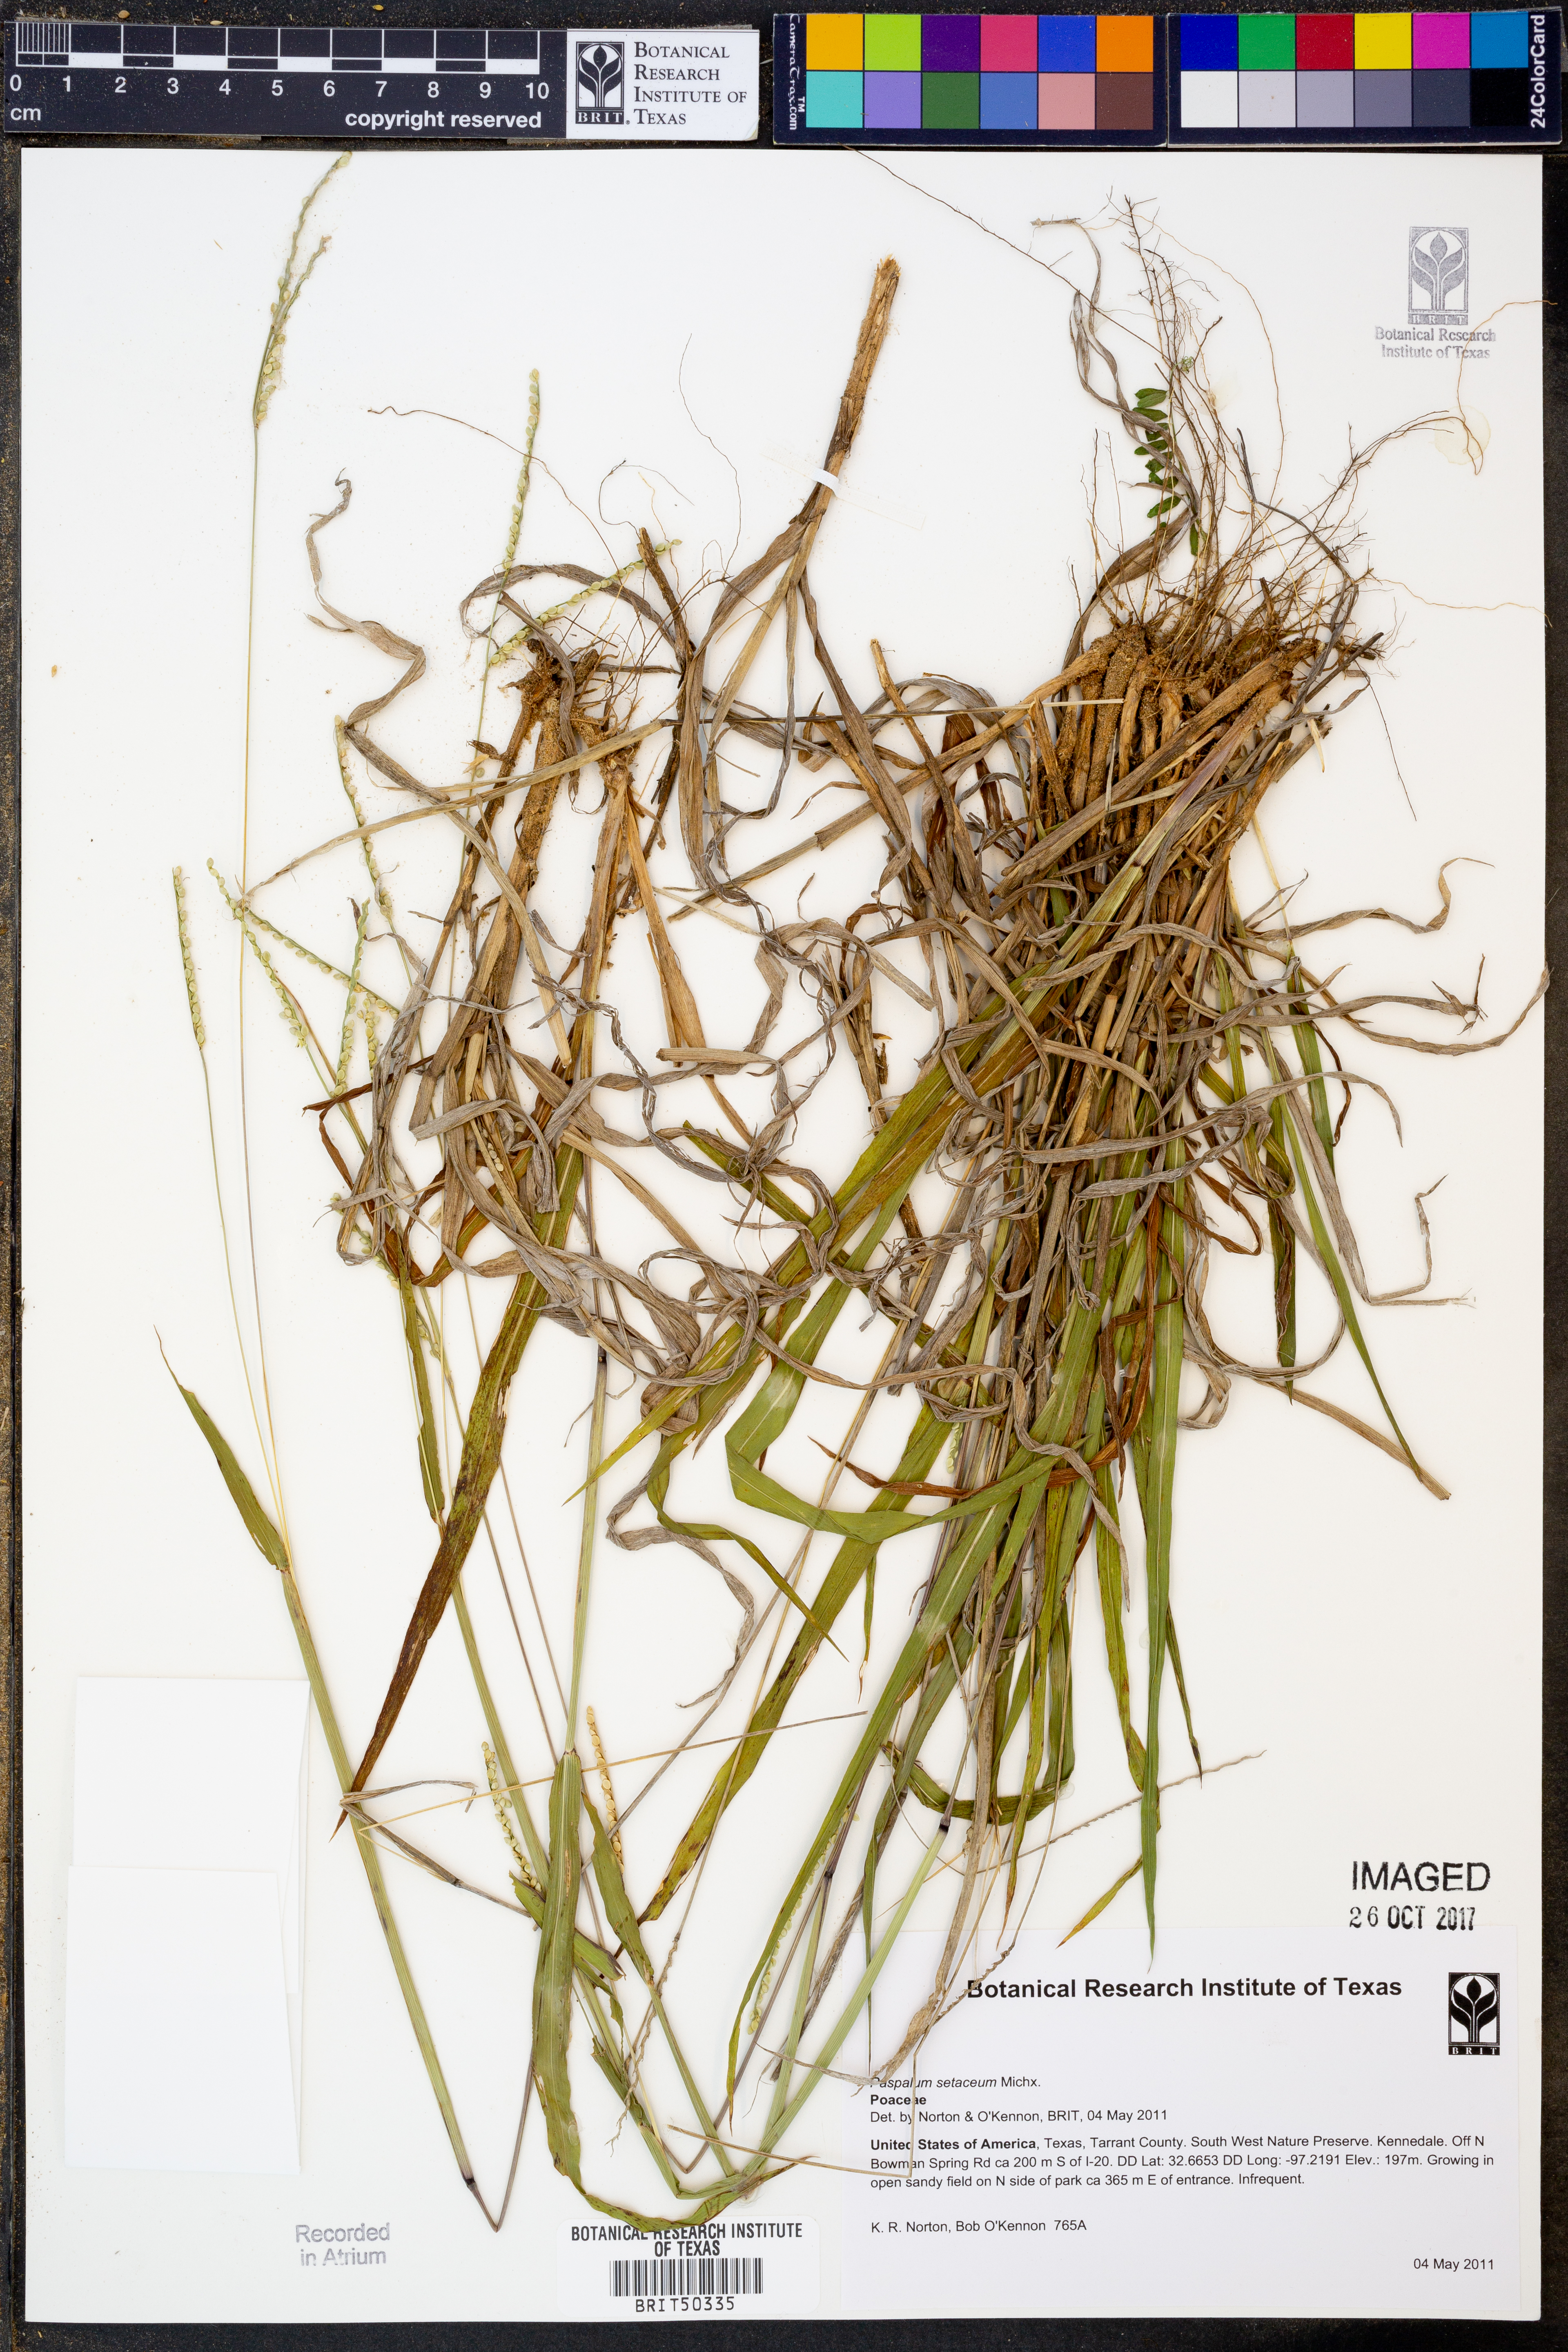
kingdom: Plantae
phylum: Tracheophyta
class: Liliopsida
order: Poales
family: Poaceae
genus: Paspalum
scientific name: Paspalum setaceum
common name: Slender paspalum
